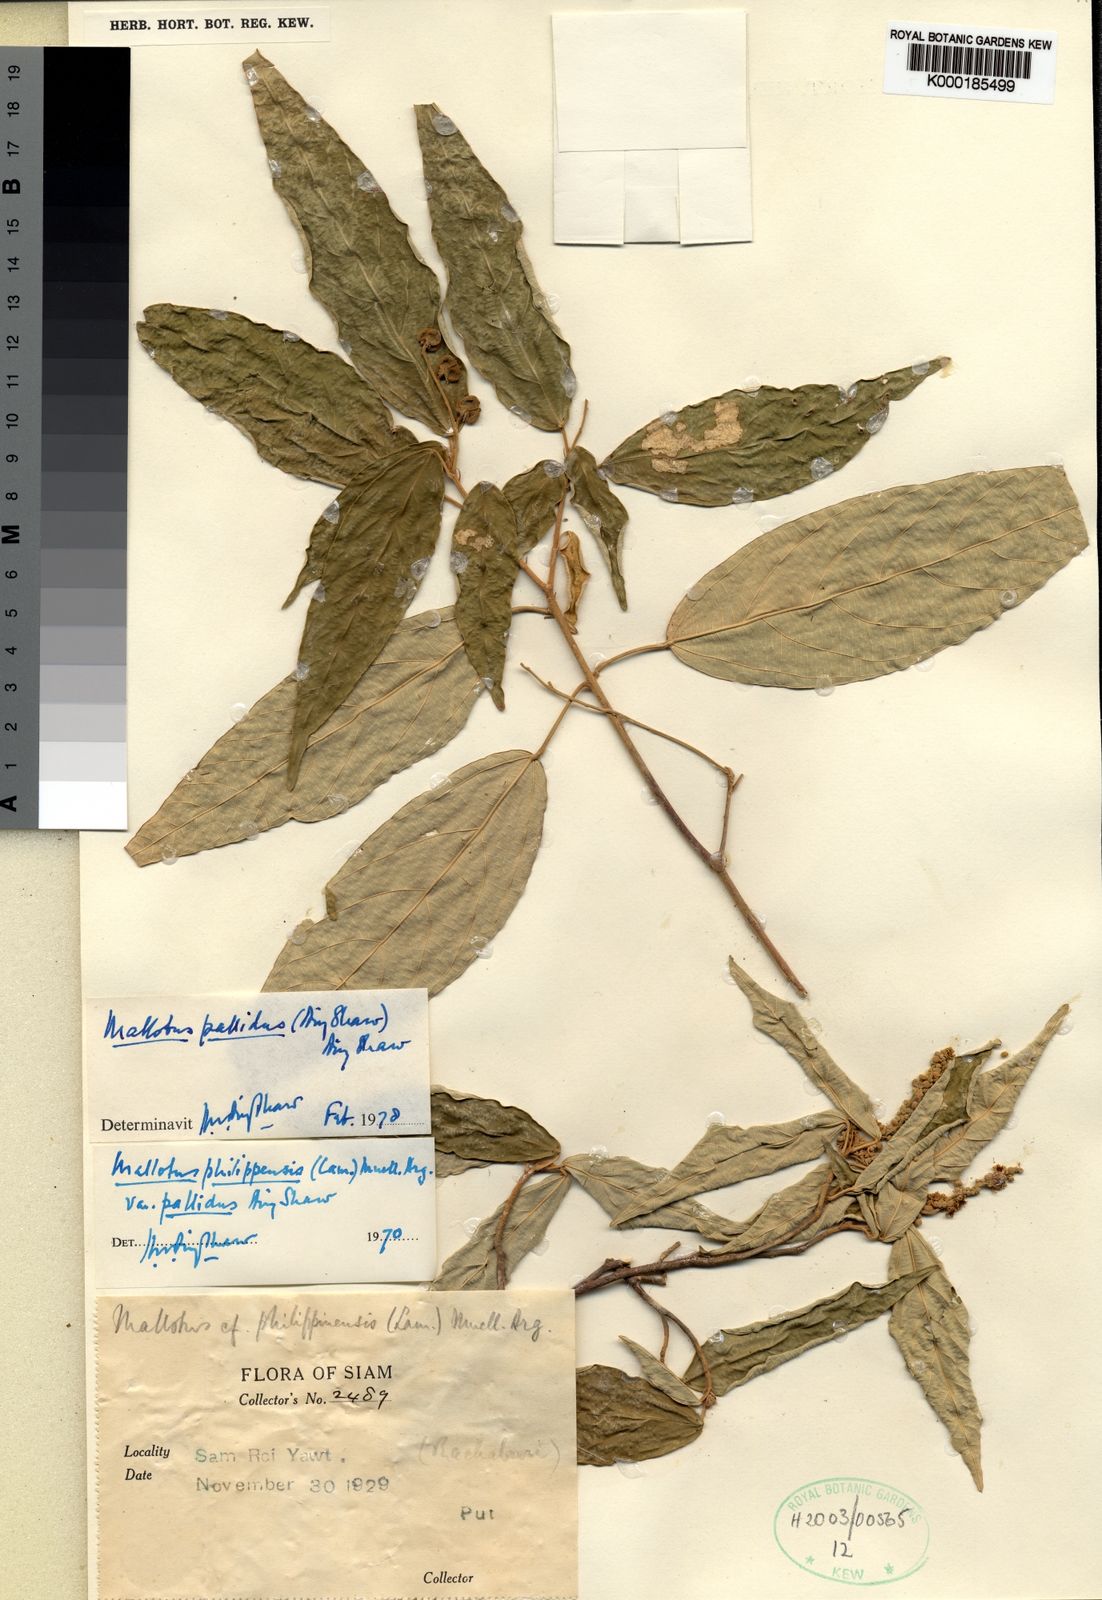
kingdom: Plantae
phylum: Tracheophyta
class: Magnoliopsida
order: Malpighiales
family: Euphorbiaceae
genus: Mallotus
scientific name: Mallotus pallidus
